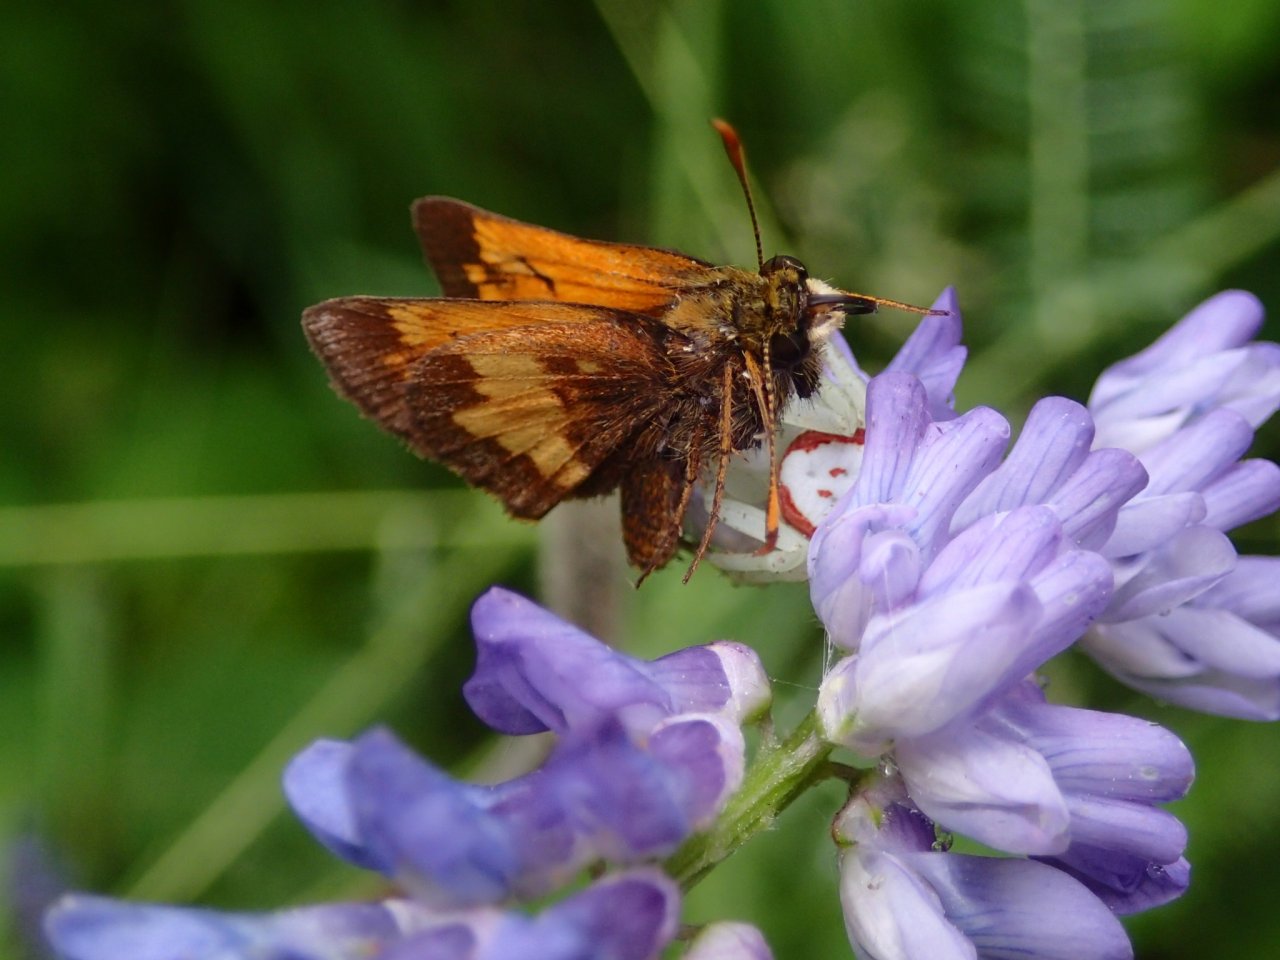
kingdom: Animalia
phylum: Arthropoda
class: Insecta
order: Lepidoptera
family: Hesperiidae
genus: Lon
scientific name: Lon hobomok
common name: Hobomok Skipper
